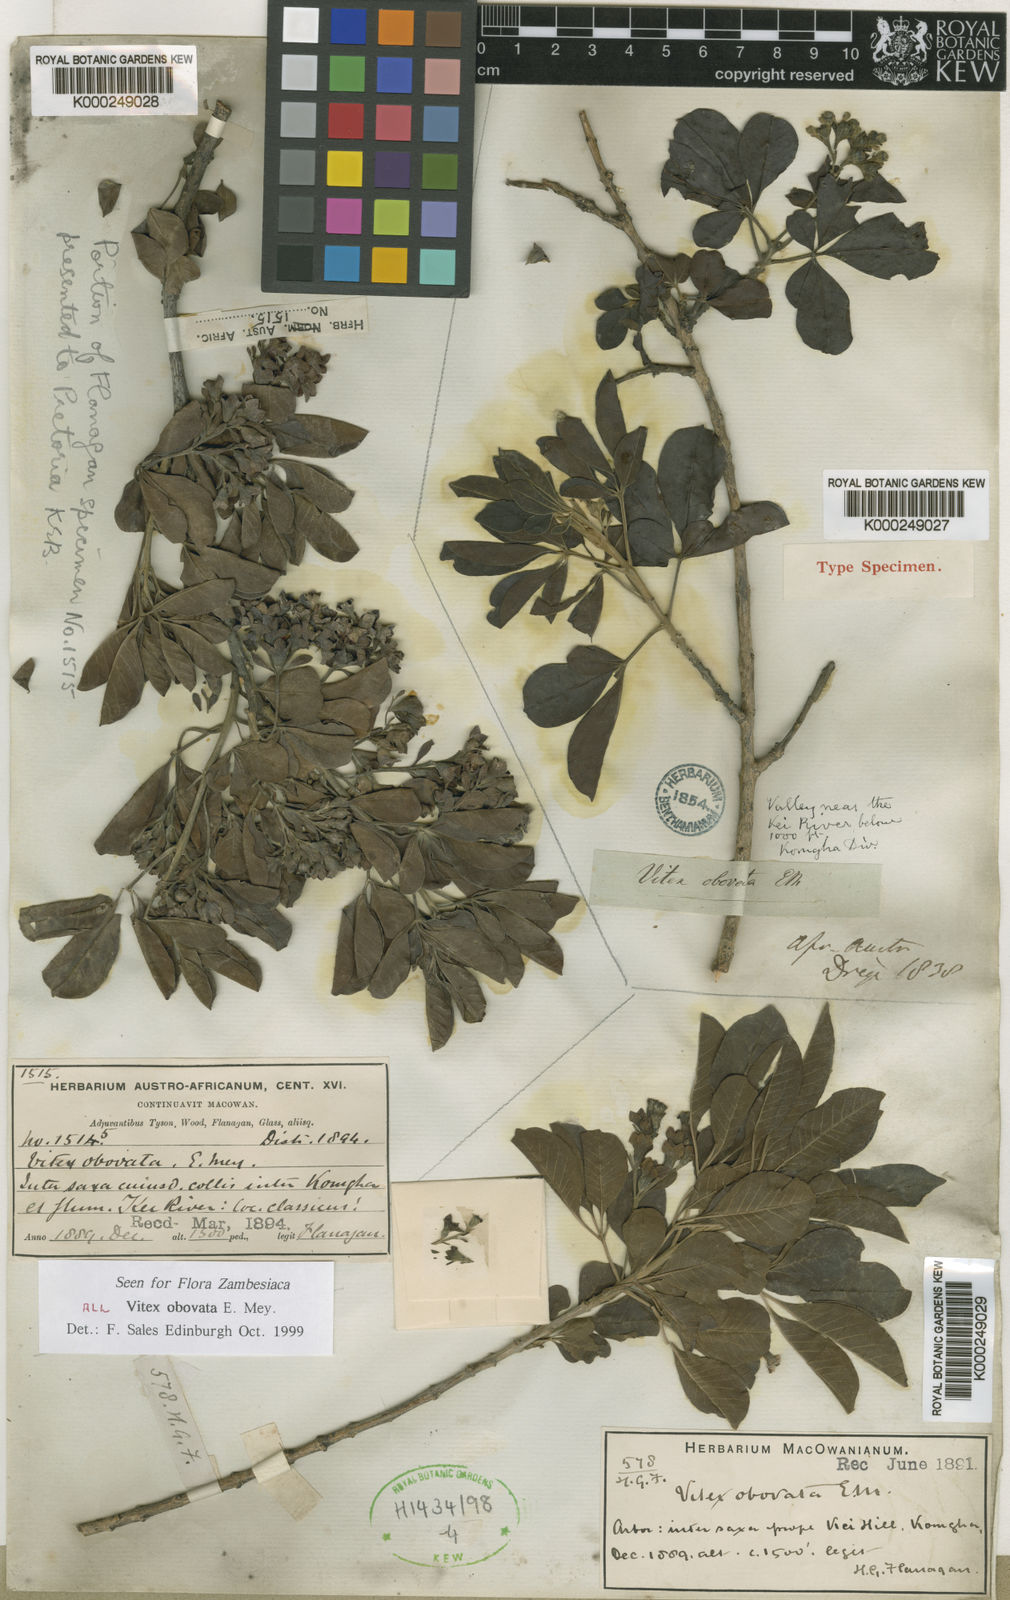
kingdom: Plantae
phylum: Tracheophyta
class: Magnoliopsida
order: Lamiales
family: Lamiaceae
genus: Vitex
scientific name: Vitex
